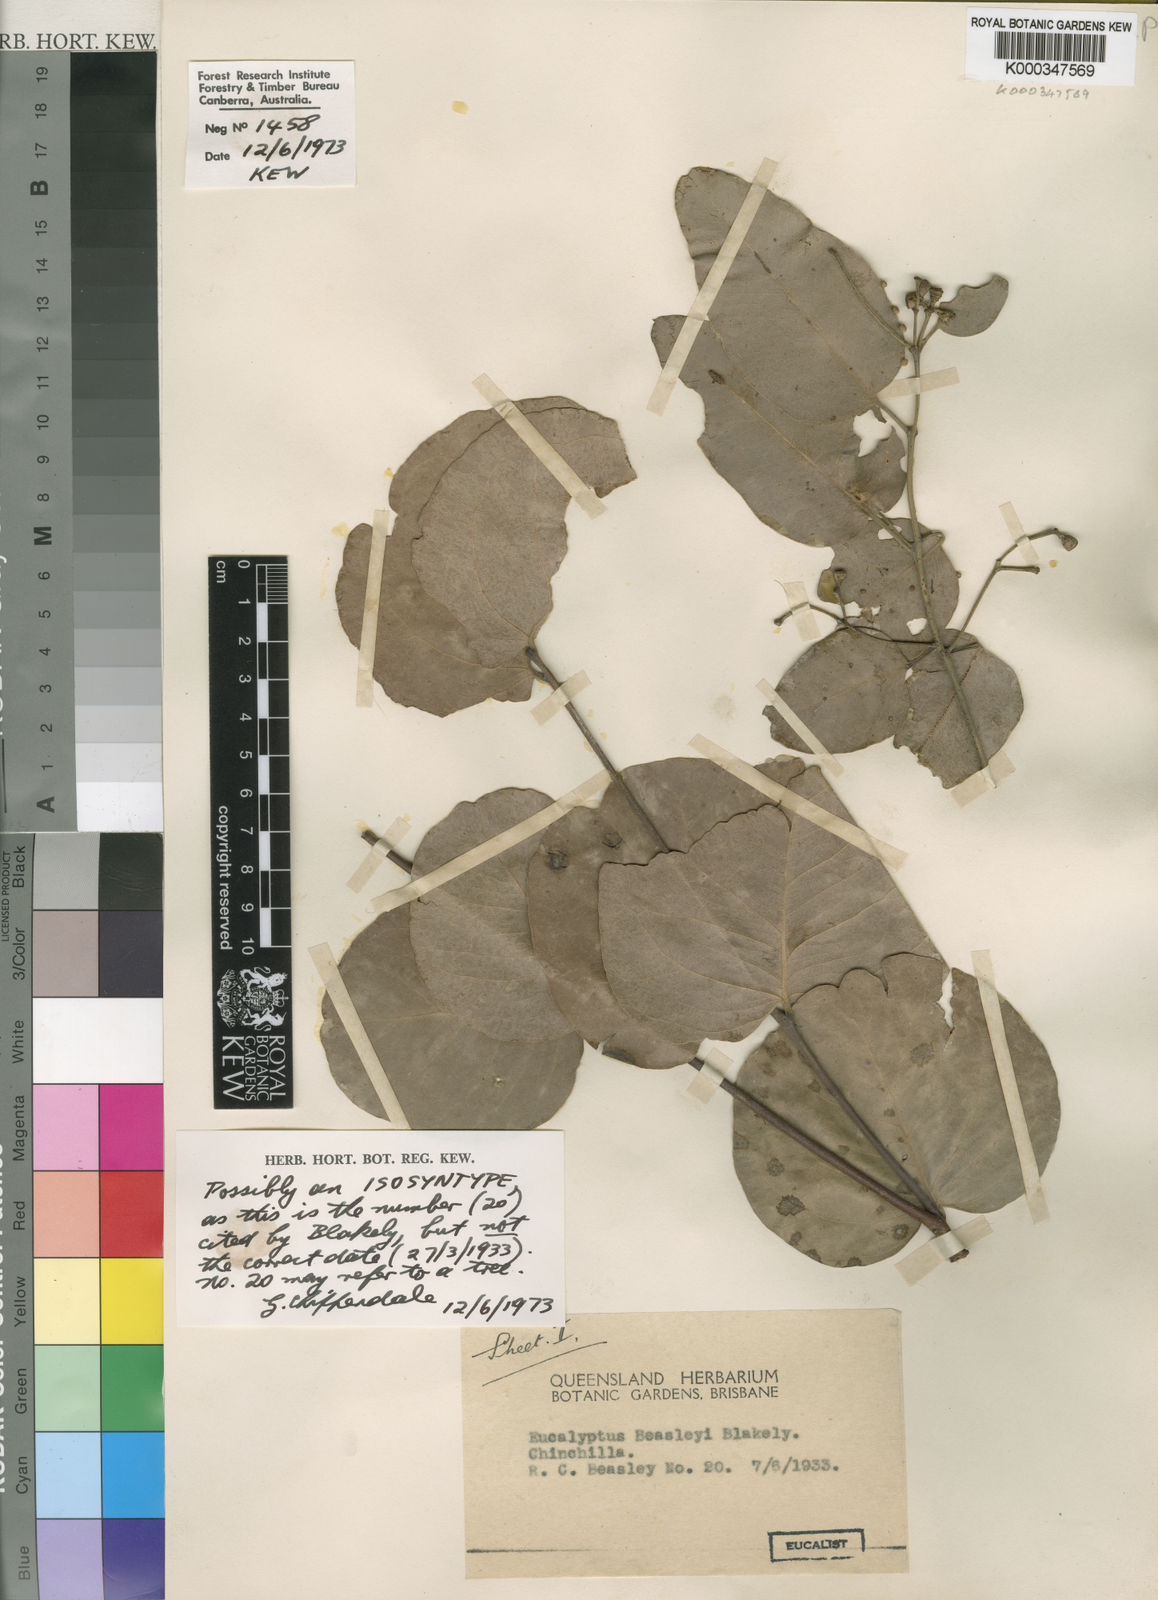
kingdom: Plantae
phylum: Tracheophyta
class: Magnoliopsida
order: Myrtales
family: Myrtaceae
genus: Eucalyptus
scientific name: Eucalyptus
